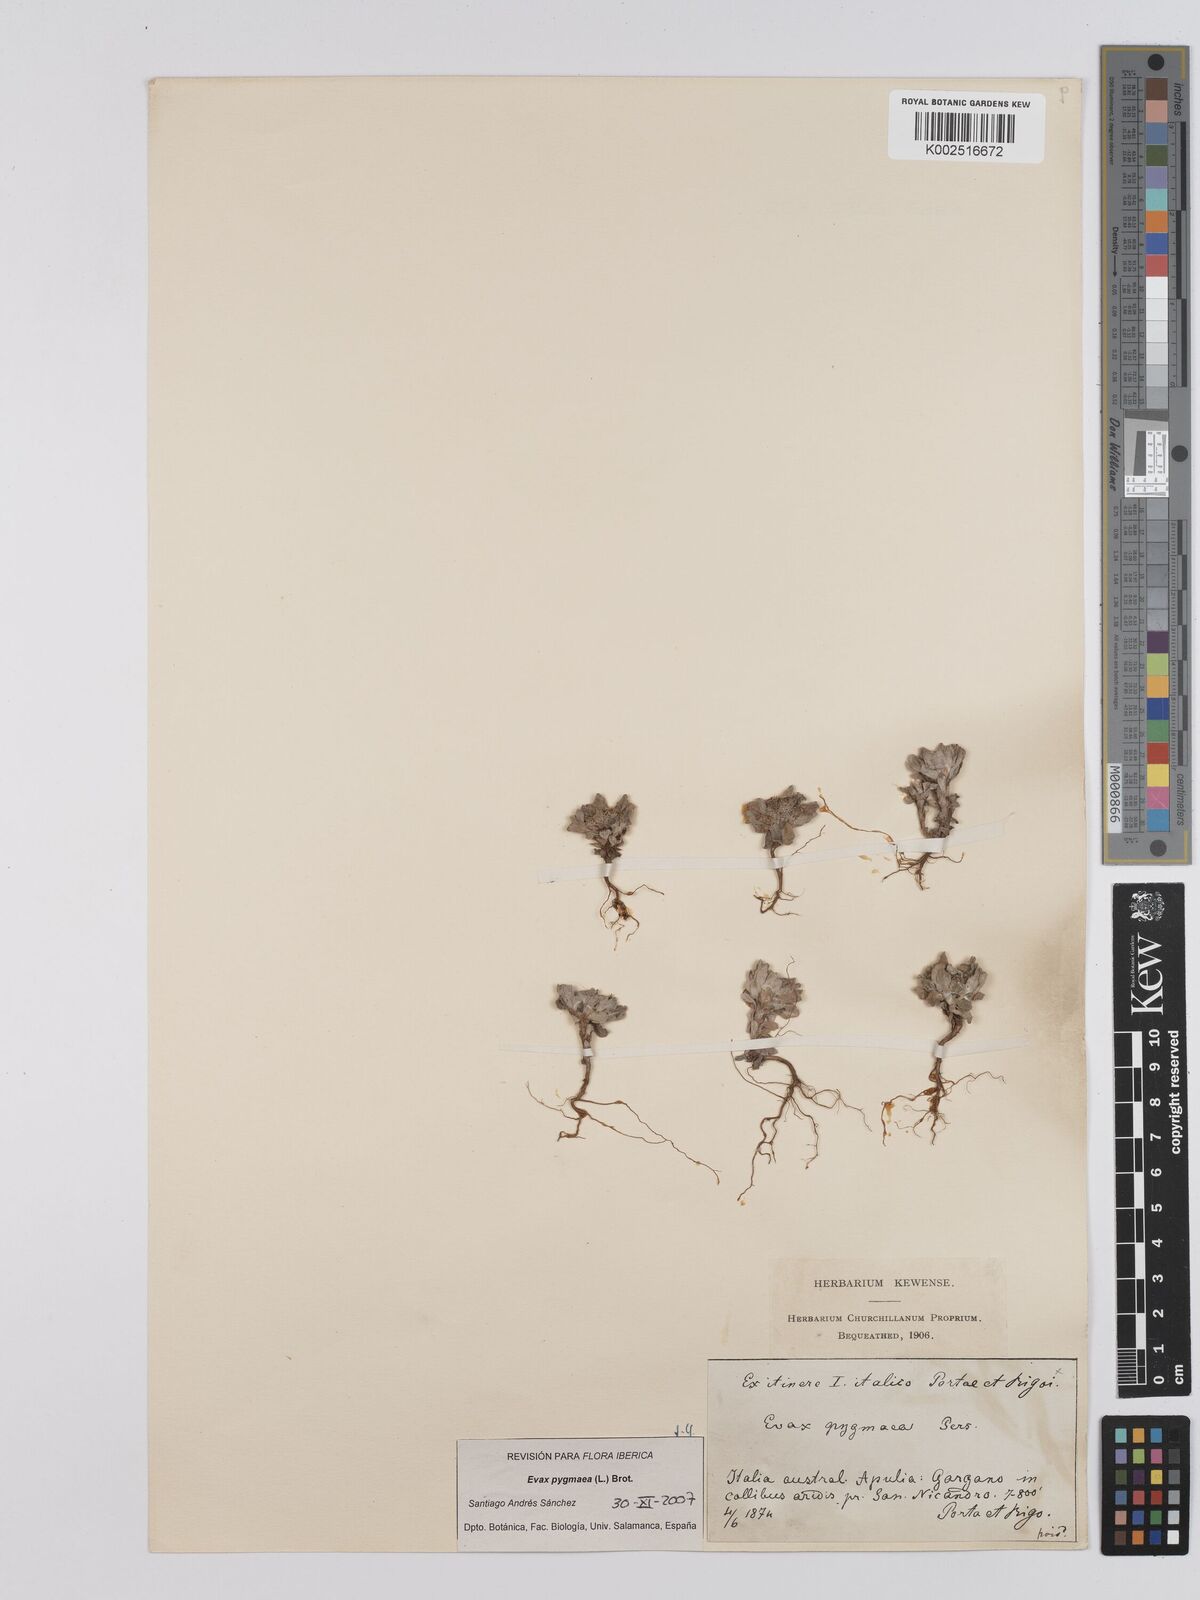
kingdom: Plantae
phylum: Tracheophyta
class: Magnoliopsida
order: Asterales
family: Asteraceae
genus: Filago
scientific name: Filago pygmaea
